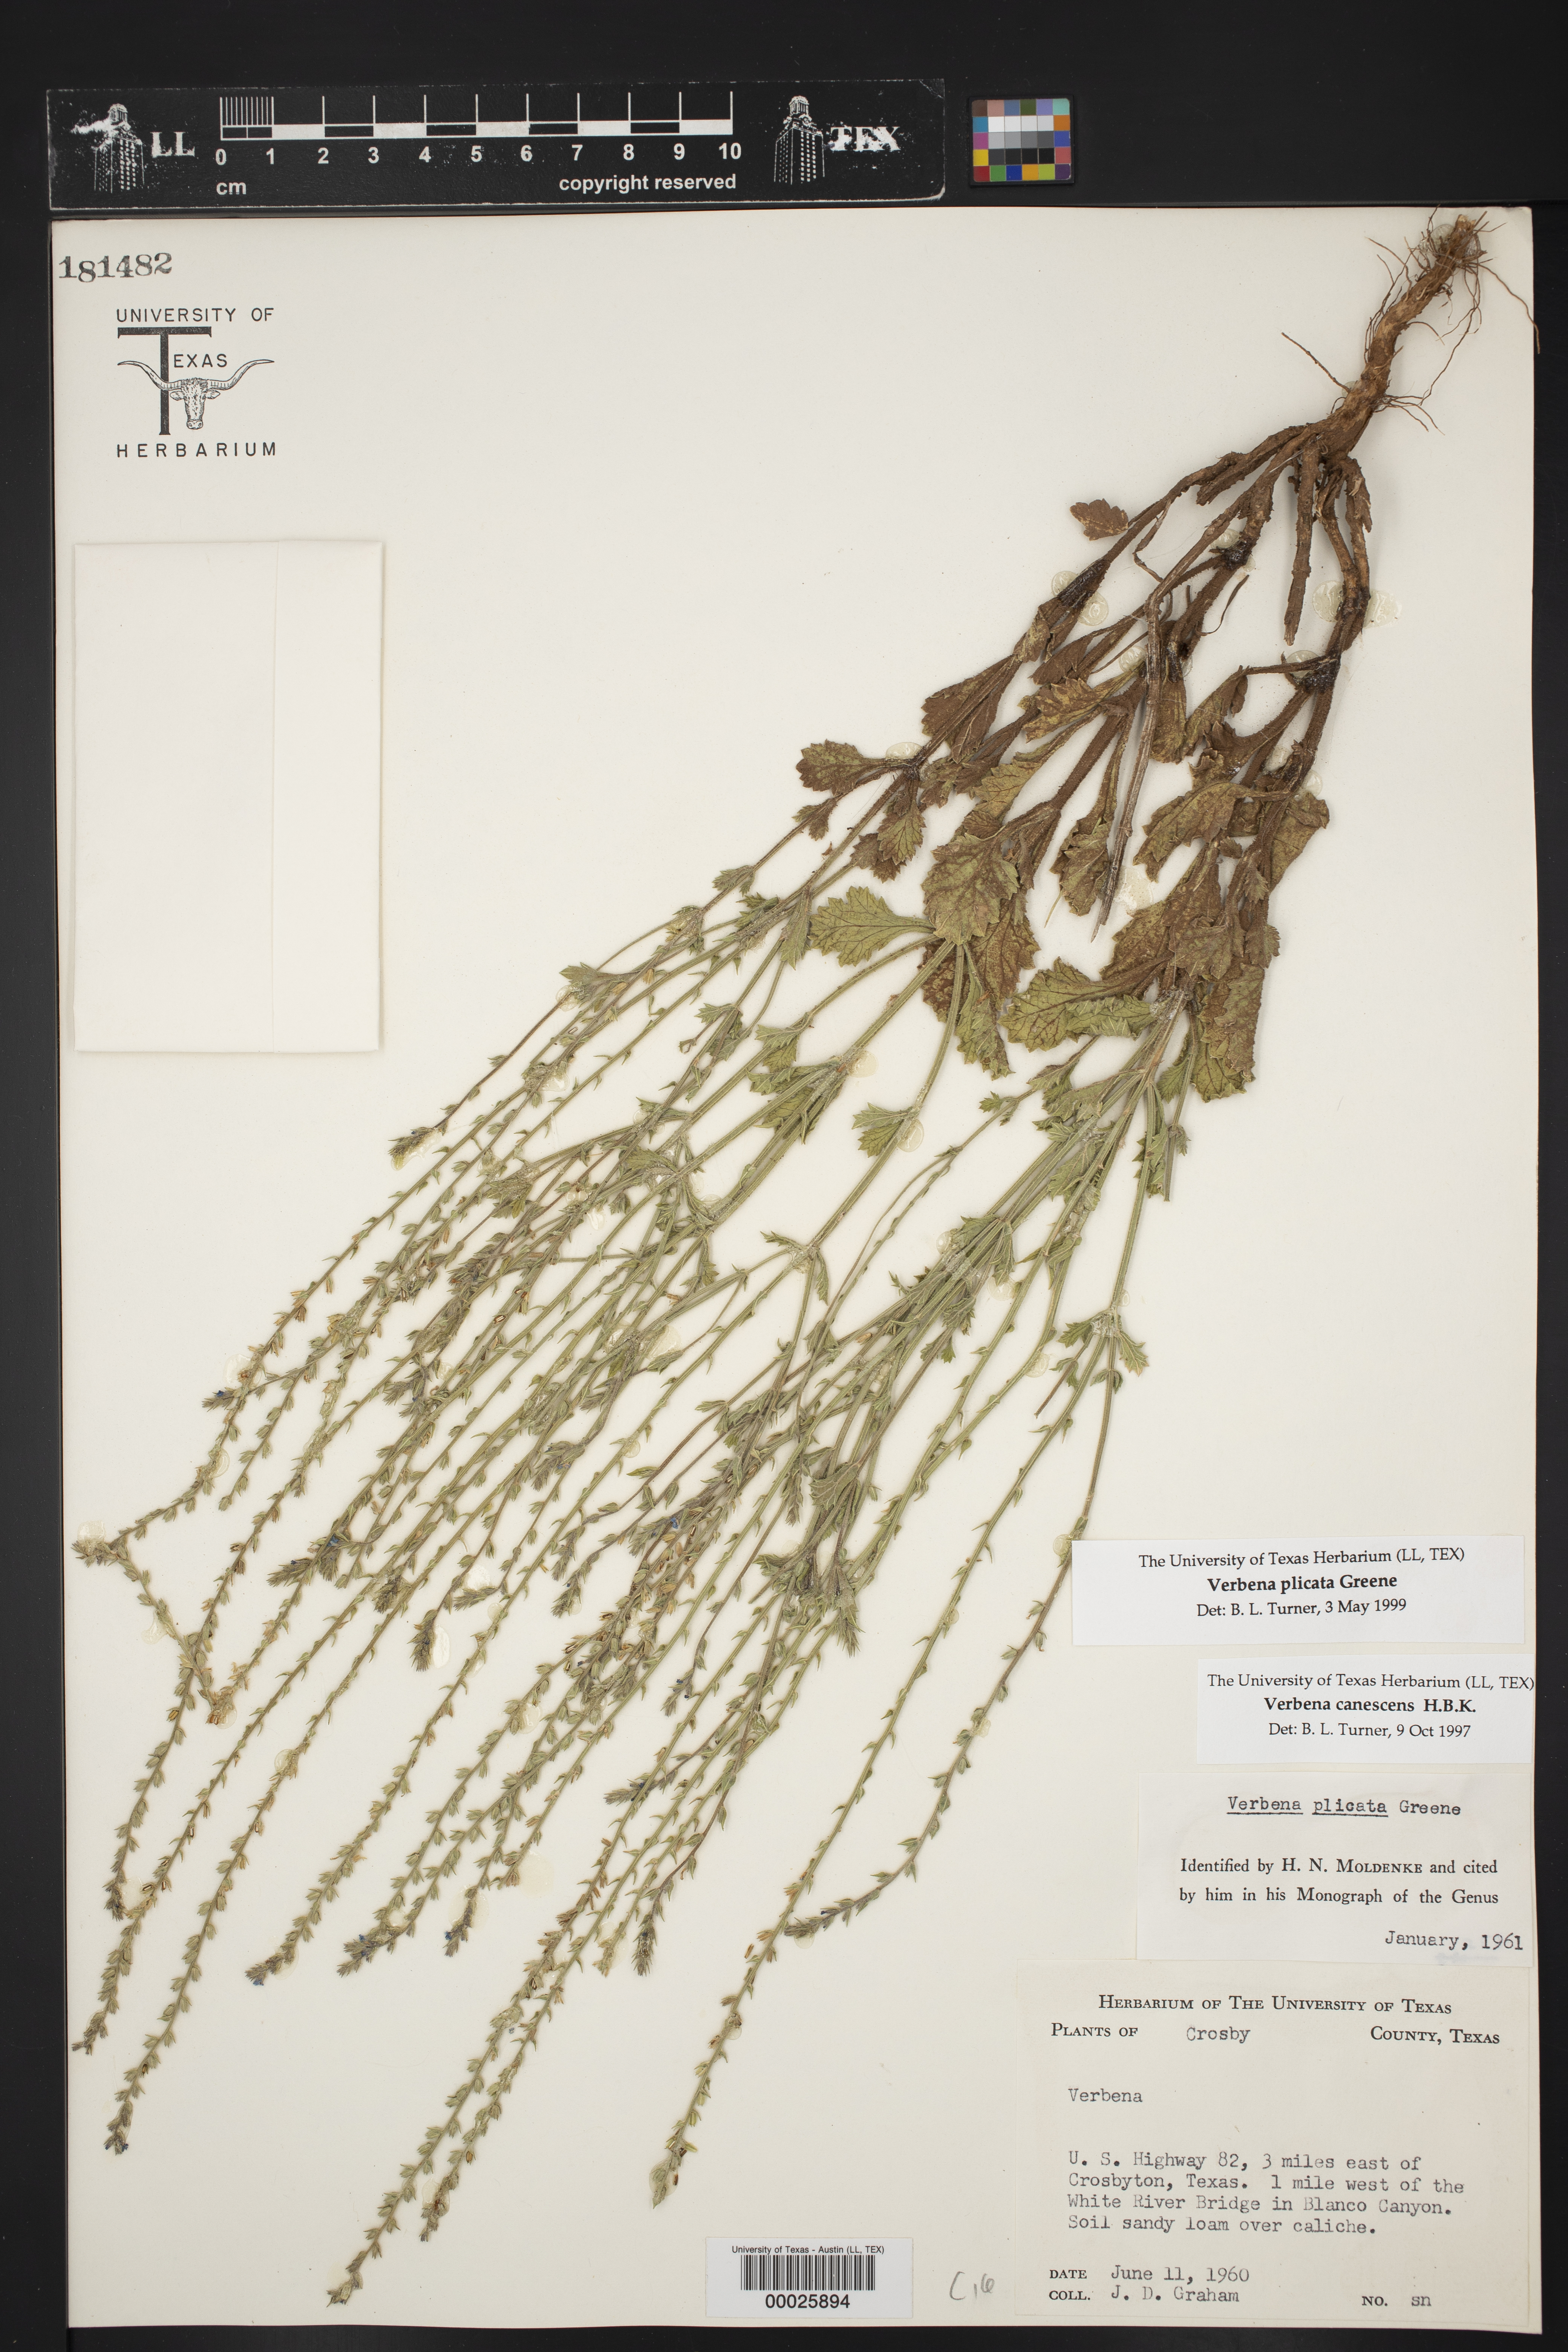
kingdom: Plantae
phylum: Tracheophyta
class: Magnoliopsida
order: Lamiales
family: Verbenaceae
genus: Verbena
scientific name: Verbena plicata
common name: Fan-leaf vervain
